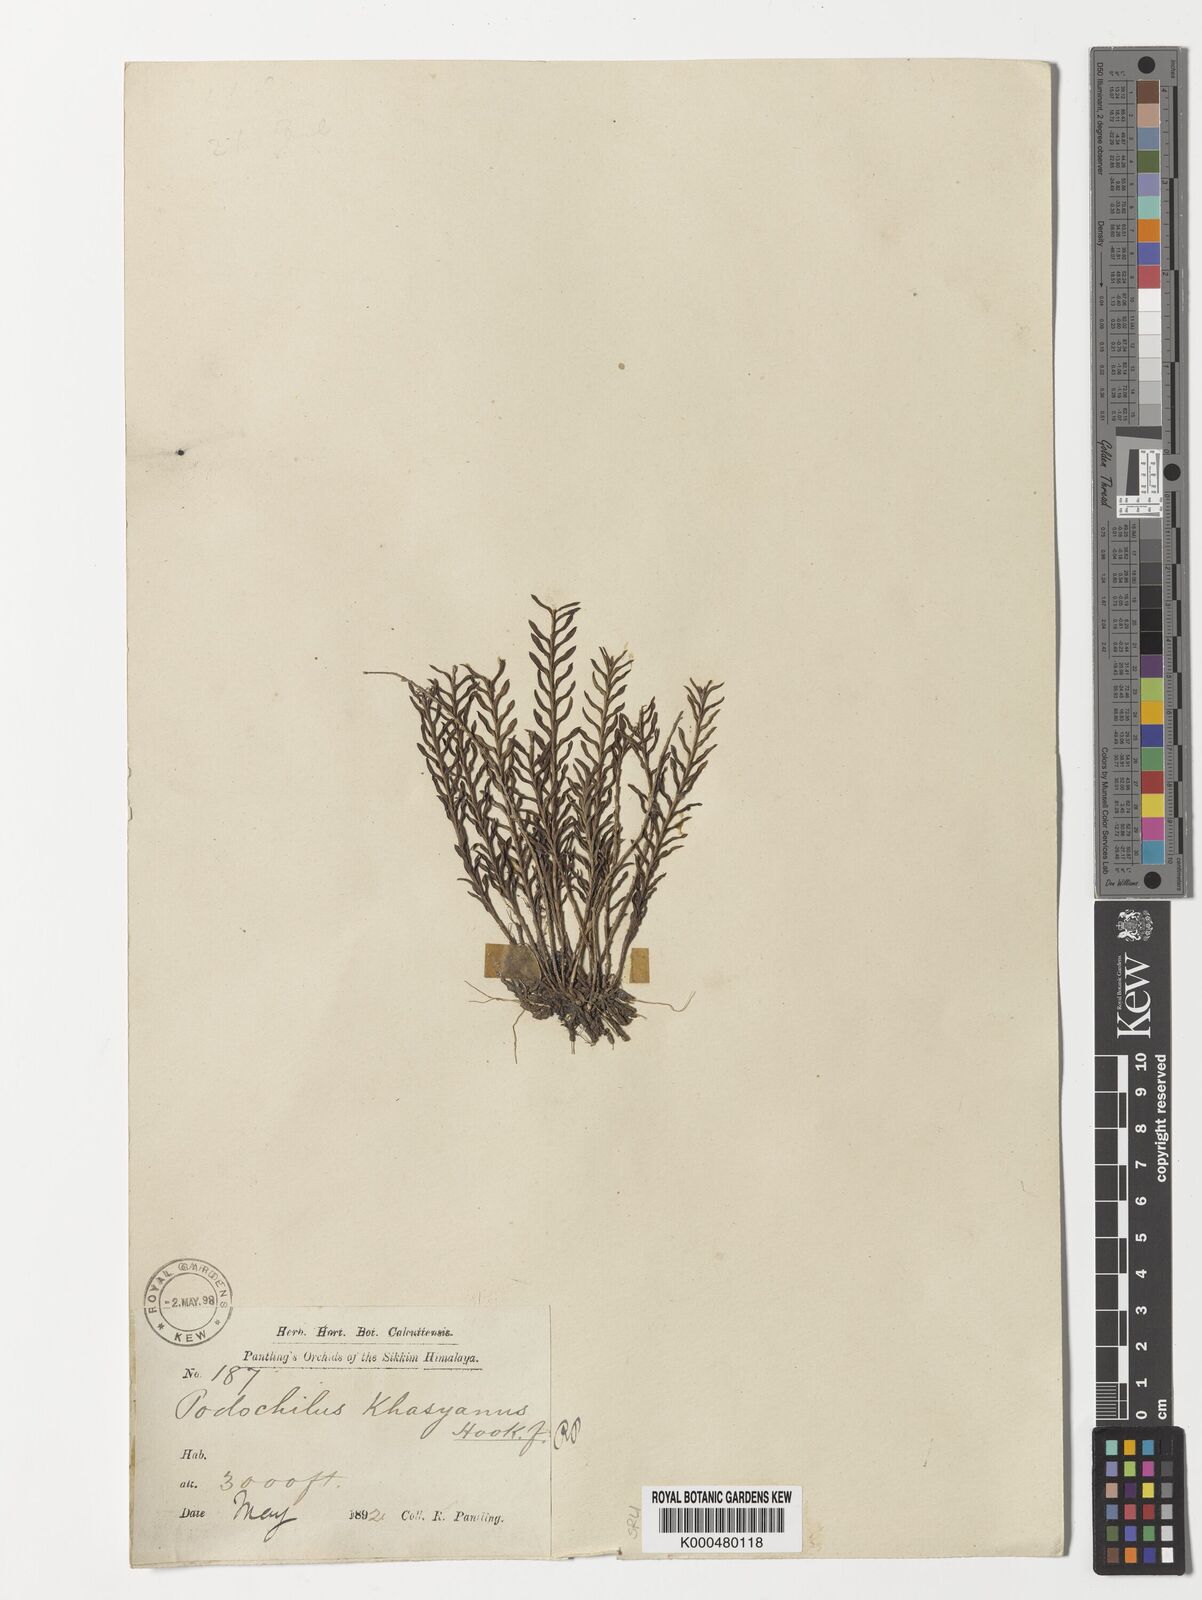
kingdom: Plantae
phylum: Tracheophyta
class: Liliopsida
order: Asparagales
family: Orchidaceae
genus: Podochilus
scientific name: Podochilus khasianus
